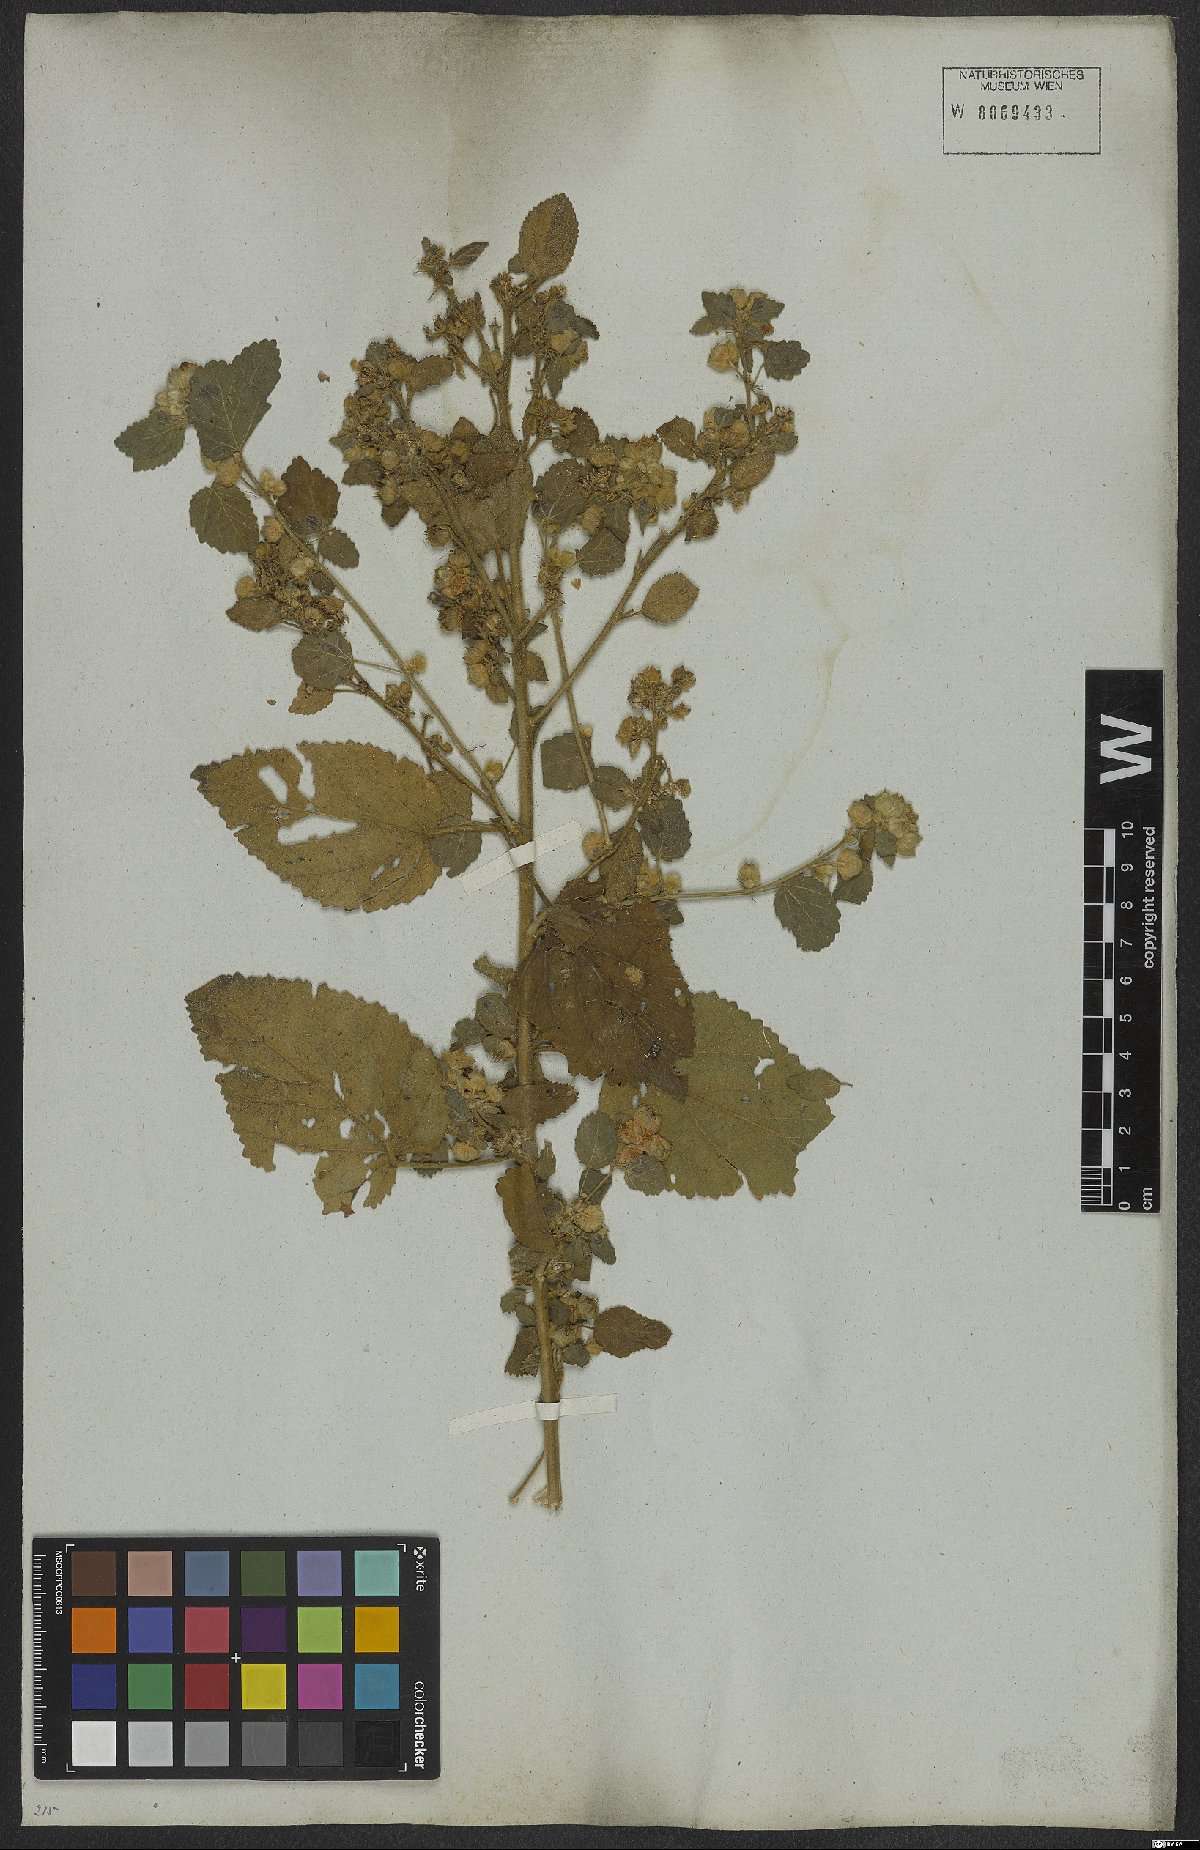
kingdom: Plantae
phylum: Tracheophyta
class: Magnoliopsida
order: Malvales
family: Malvaceae
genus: Sida
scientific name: Sida cordifolia
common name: Ilima
